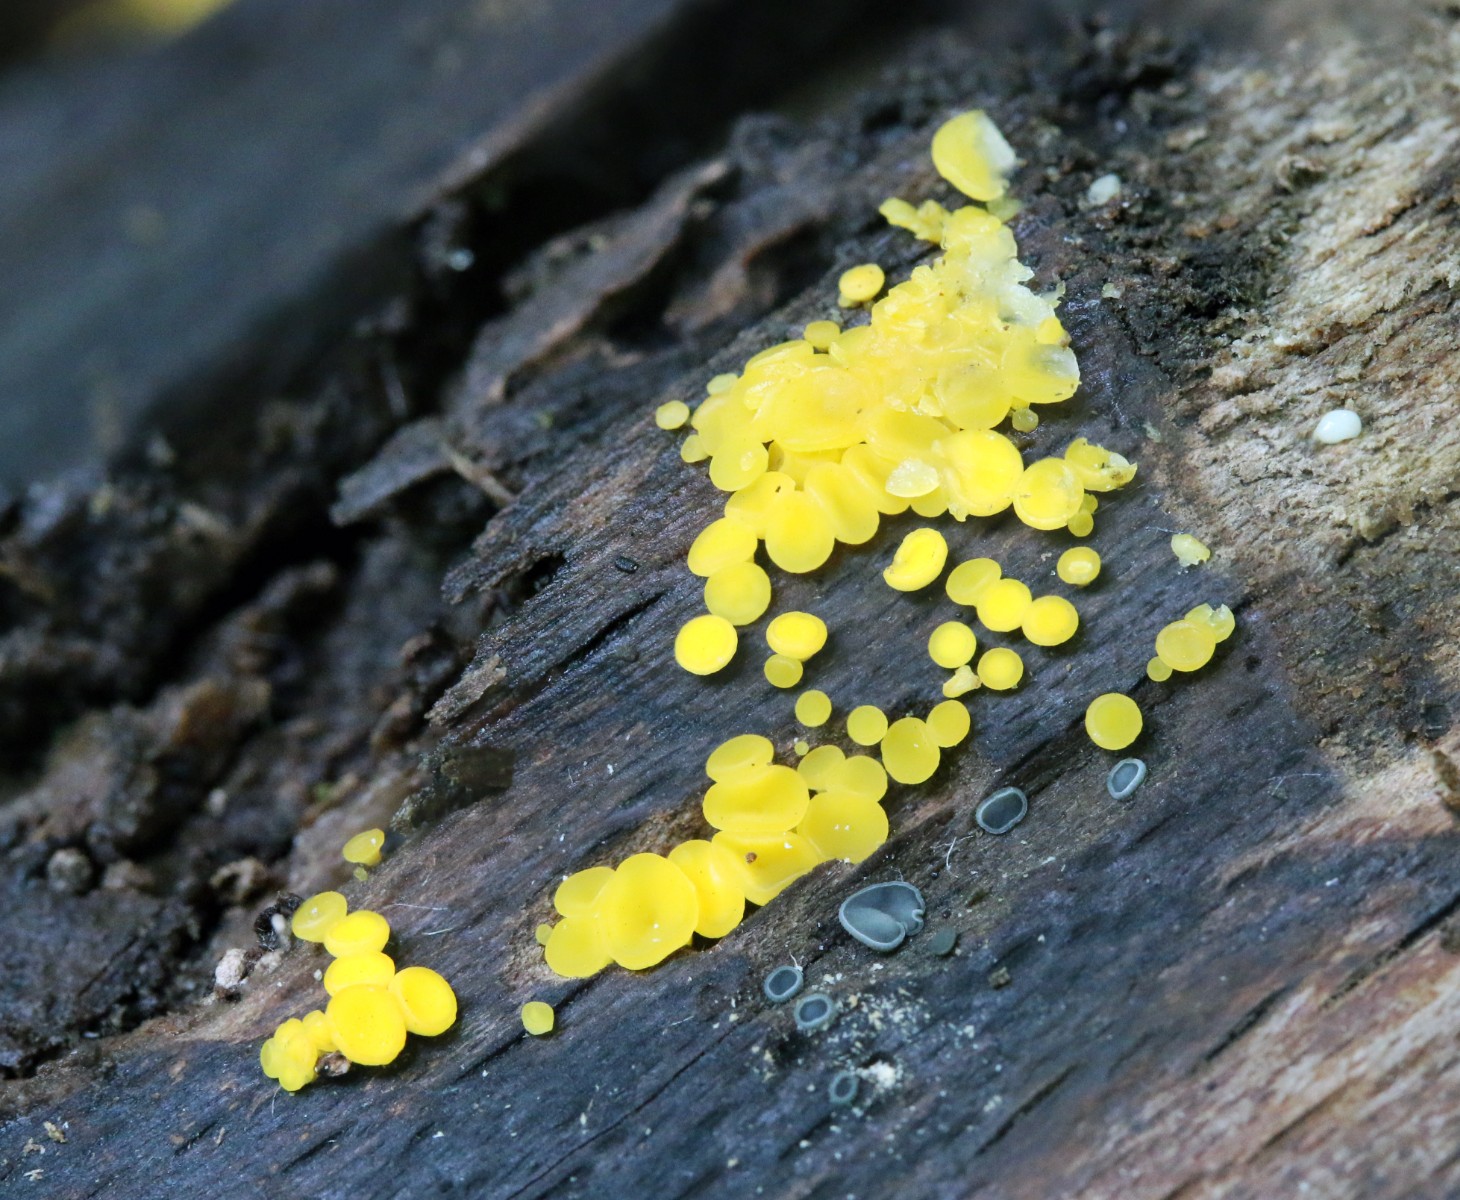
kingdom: Fungi
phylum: Ascomycota
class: Leotiomycetes
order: Helotiales
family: Pezizellaceae
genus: Calycina
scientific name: Calycina citrina
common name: almindelig gulskive
